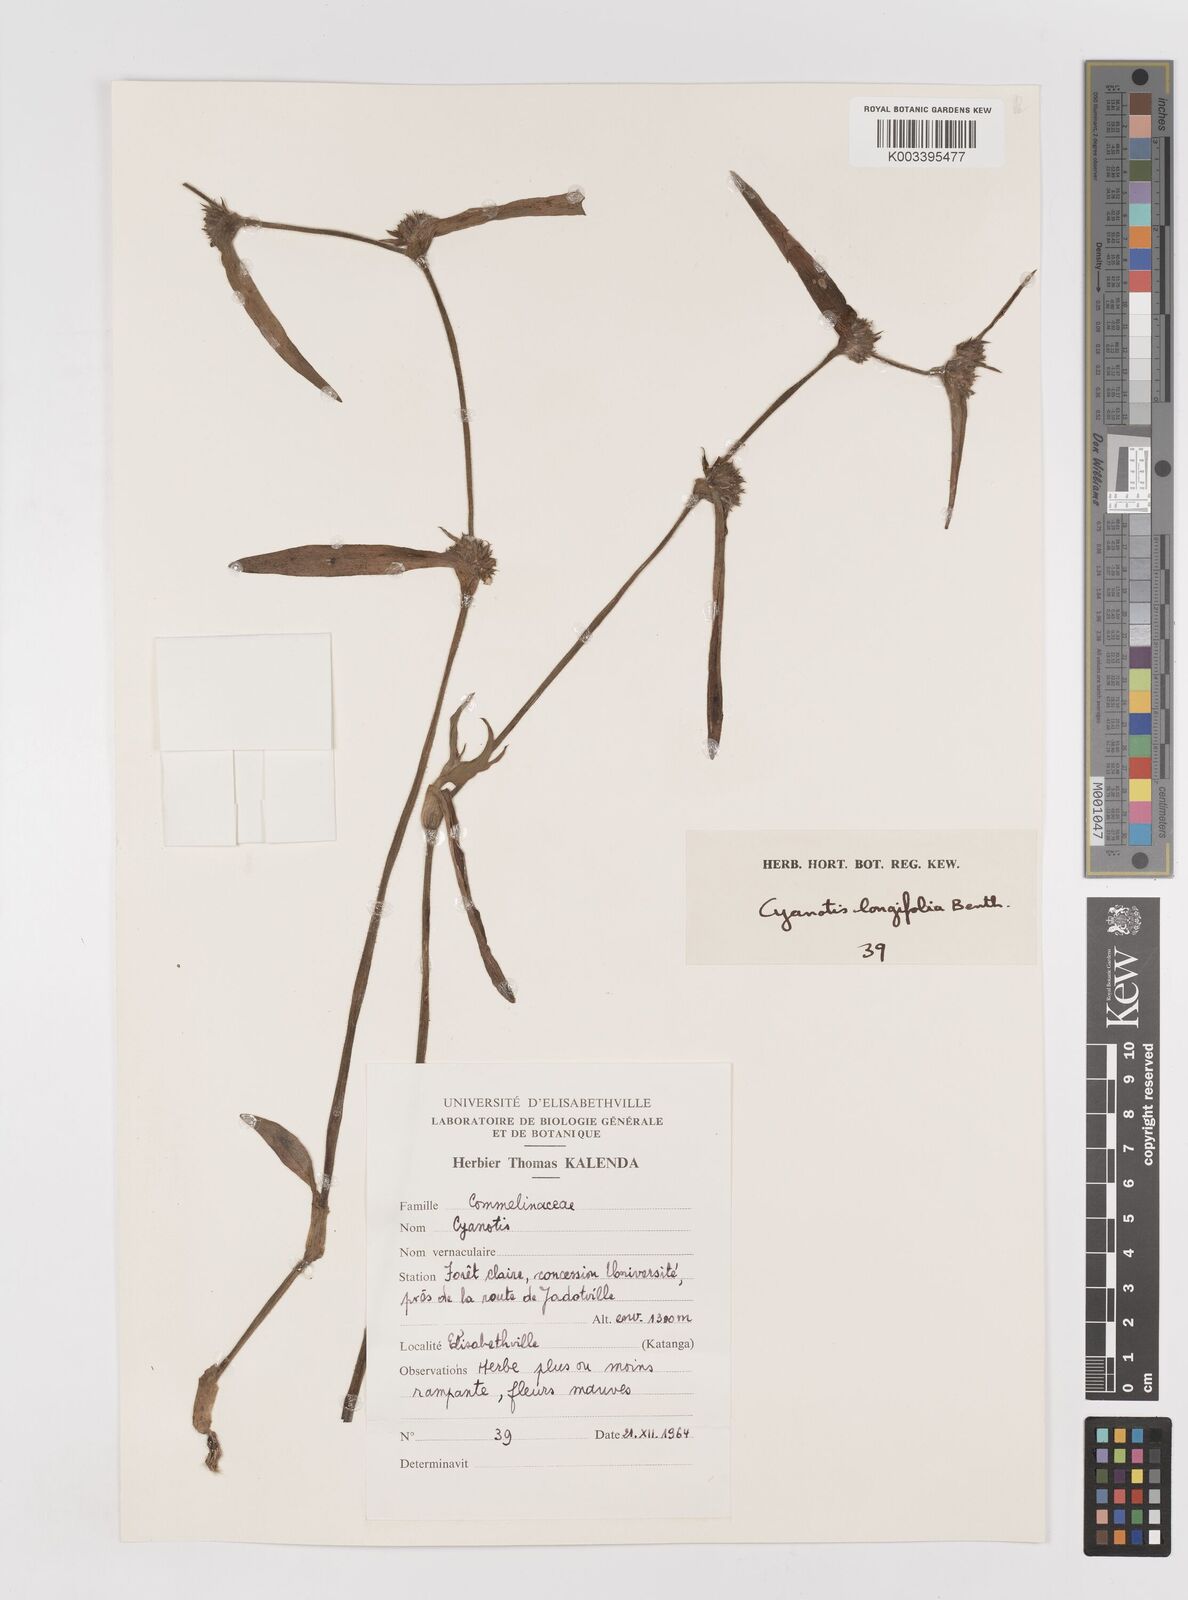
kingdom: Plantae
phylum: Tracheophyta
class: Liliopsida
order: Commelinales
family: Commelinaceae
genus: Cyanotis
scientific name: Cyanotis longifolia
